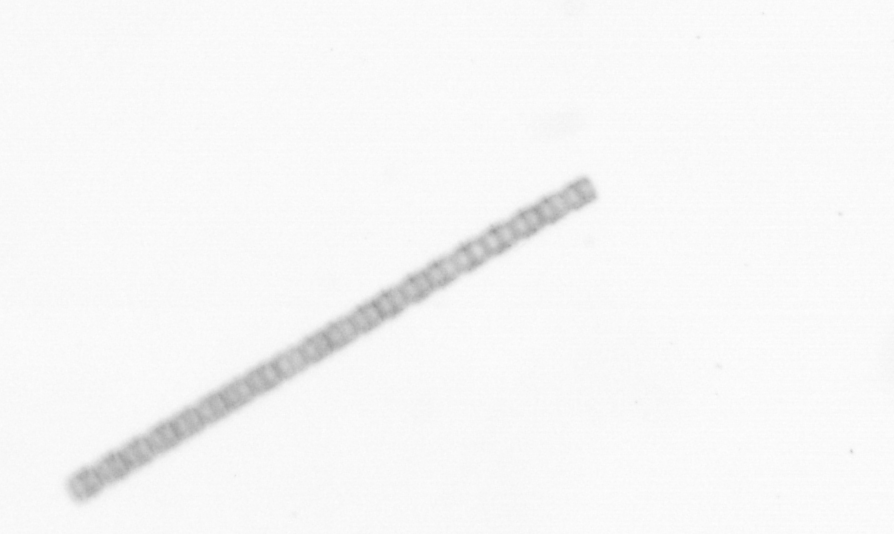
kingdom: Chromista
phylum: Ochrophyta
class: Bacillariophyceae
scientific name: Bacillariophyceae
